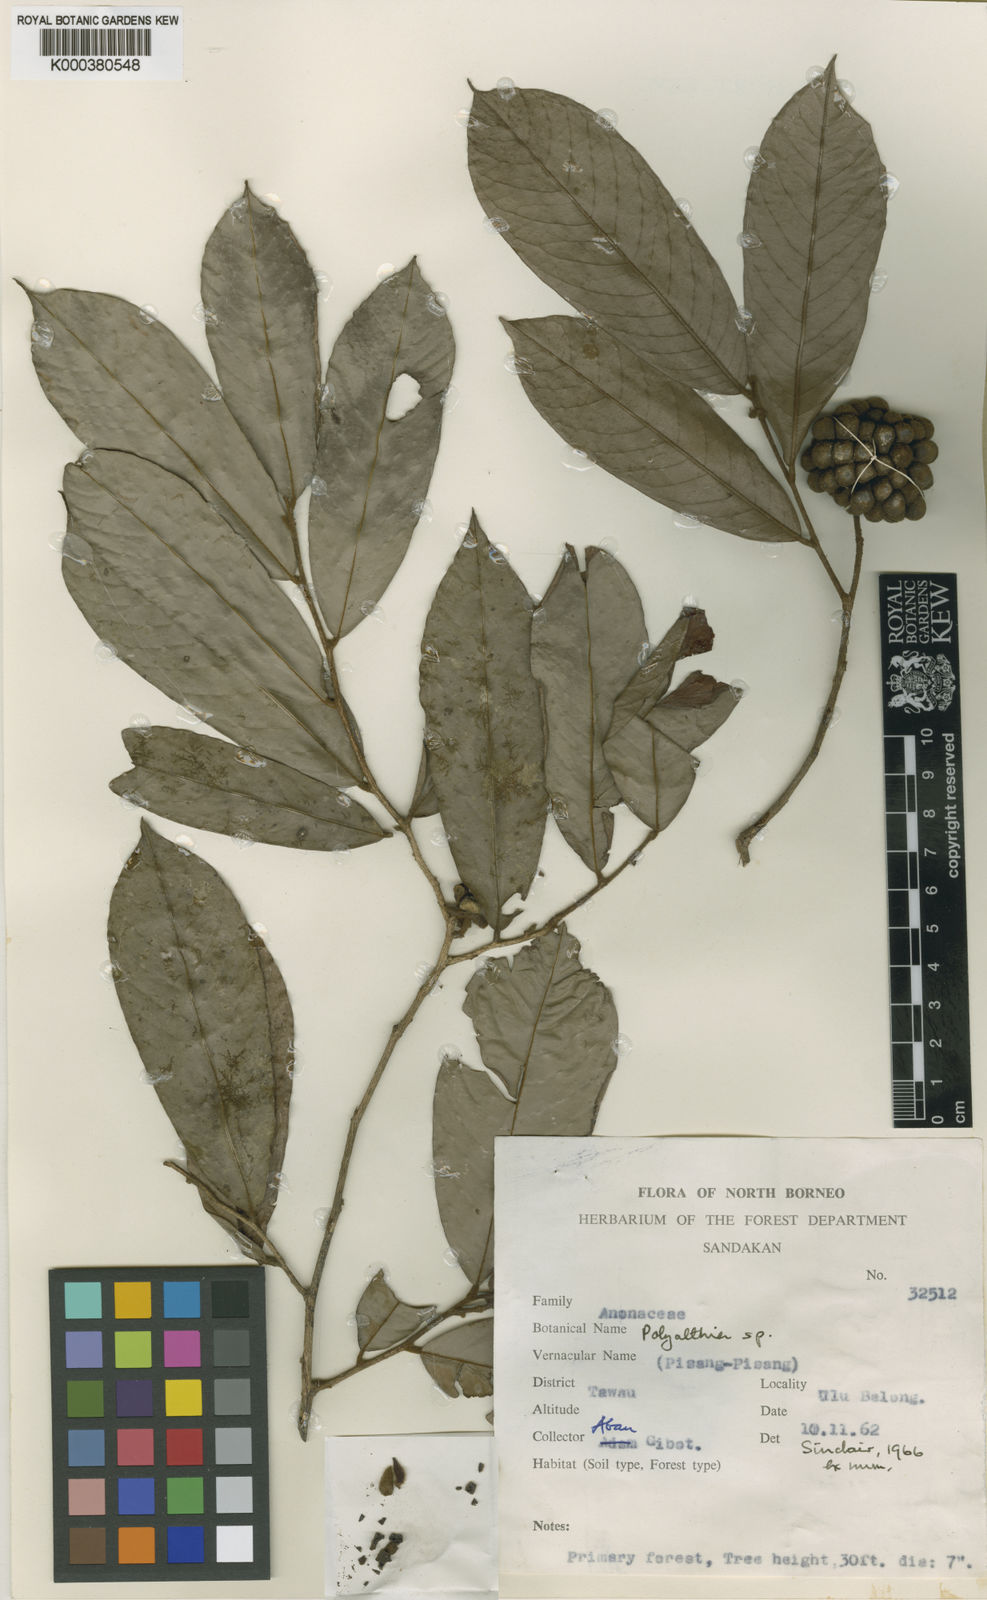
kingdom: Plantae
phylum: Tracheophyta
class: Magnoliopsida
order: Magnoliales
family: Annonaceae
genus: Polyalthia
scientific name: Polyalthia
